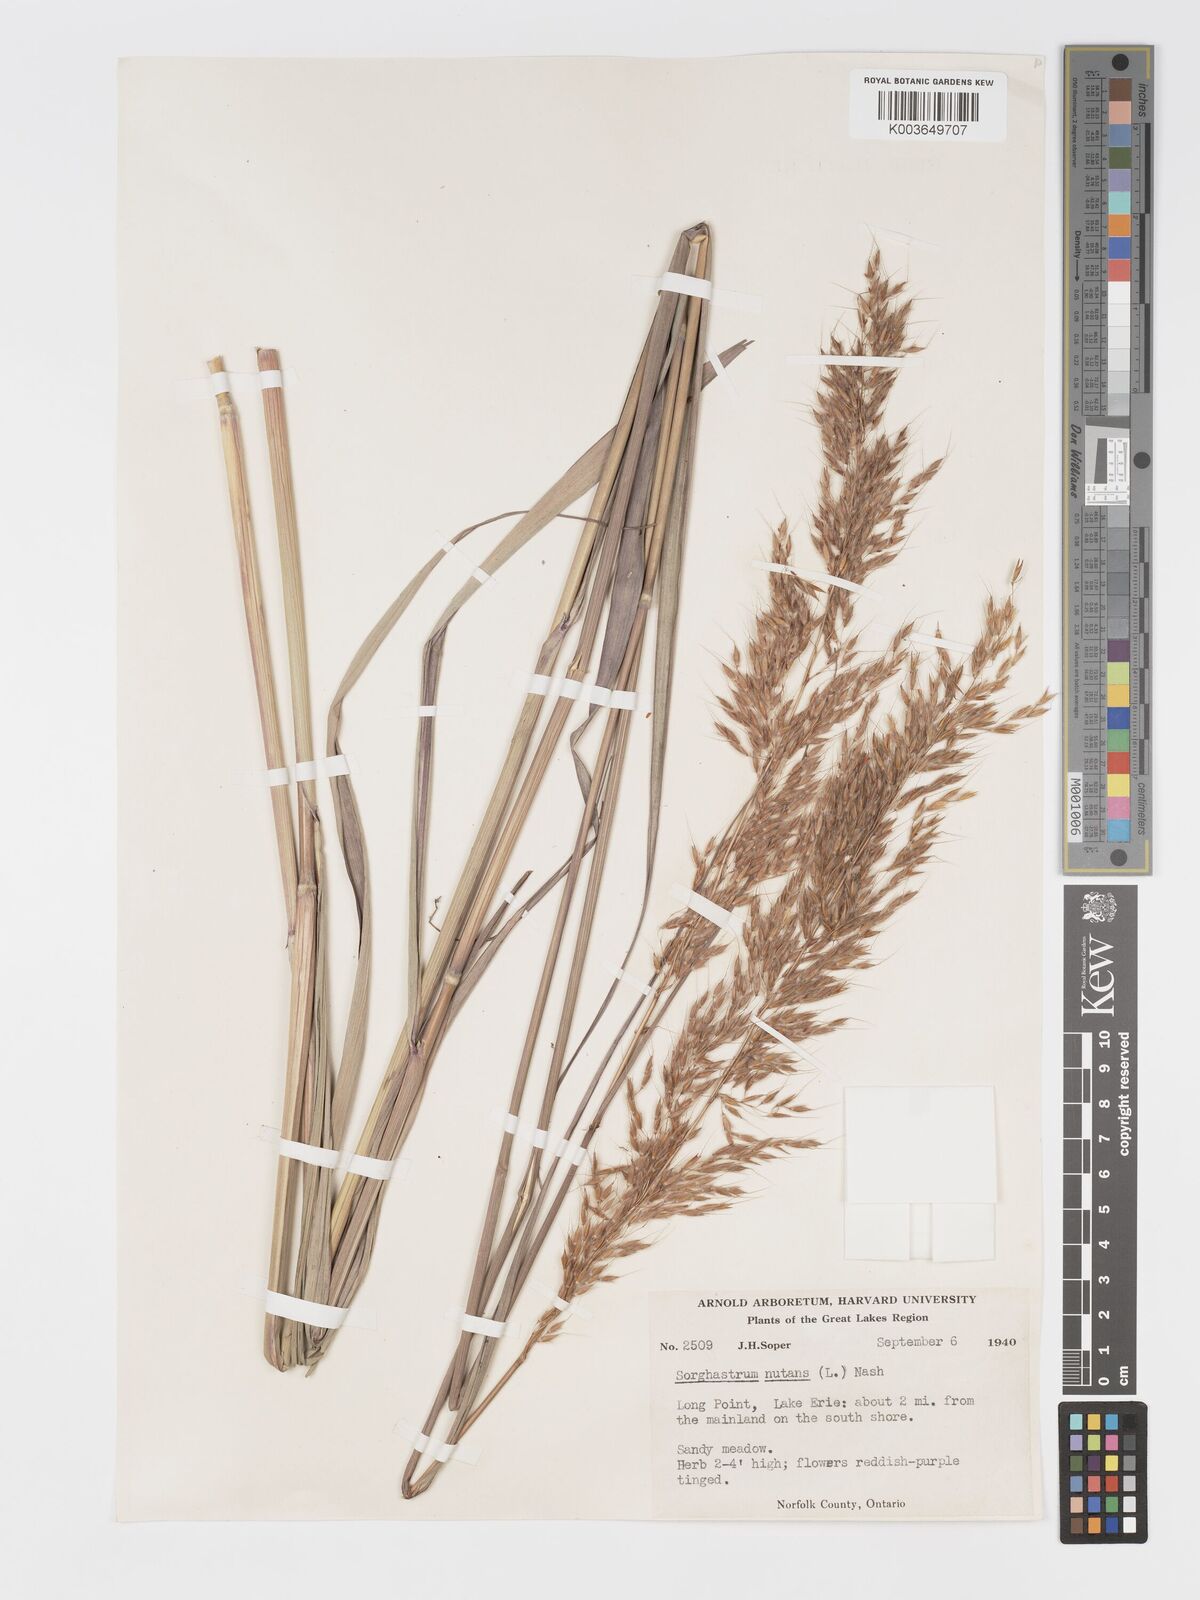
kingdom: Plantae
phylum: Tracheophyta
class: Liliopsida
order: Poales
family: Poaceae
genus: Sorghastrum
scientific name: Sorghastrum nutans
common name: Indian grass
